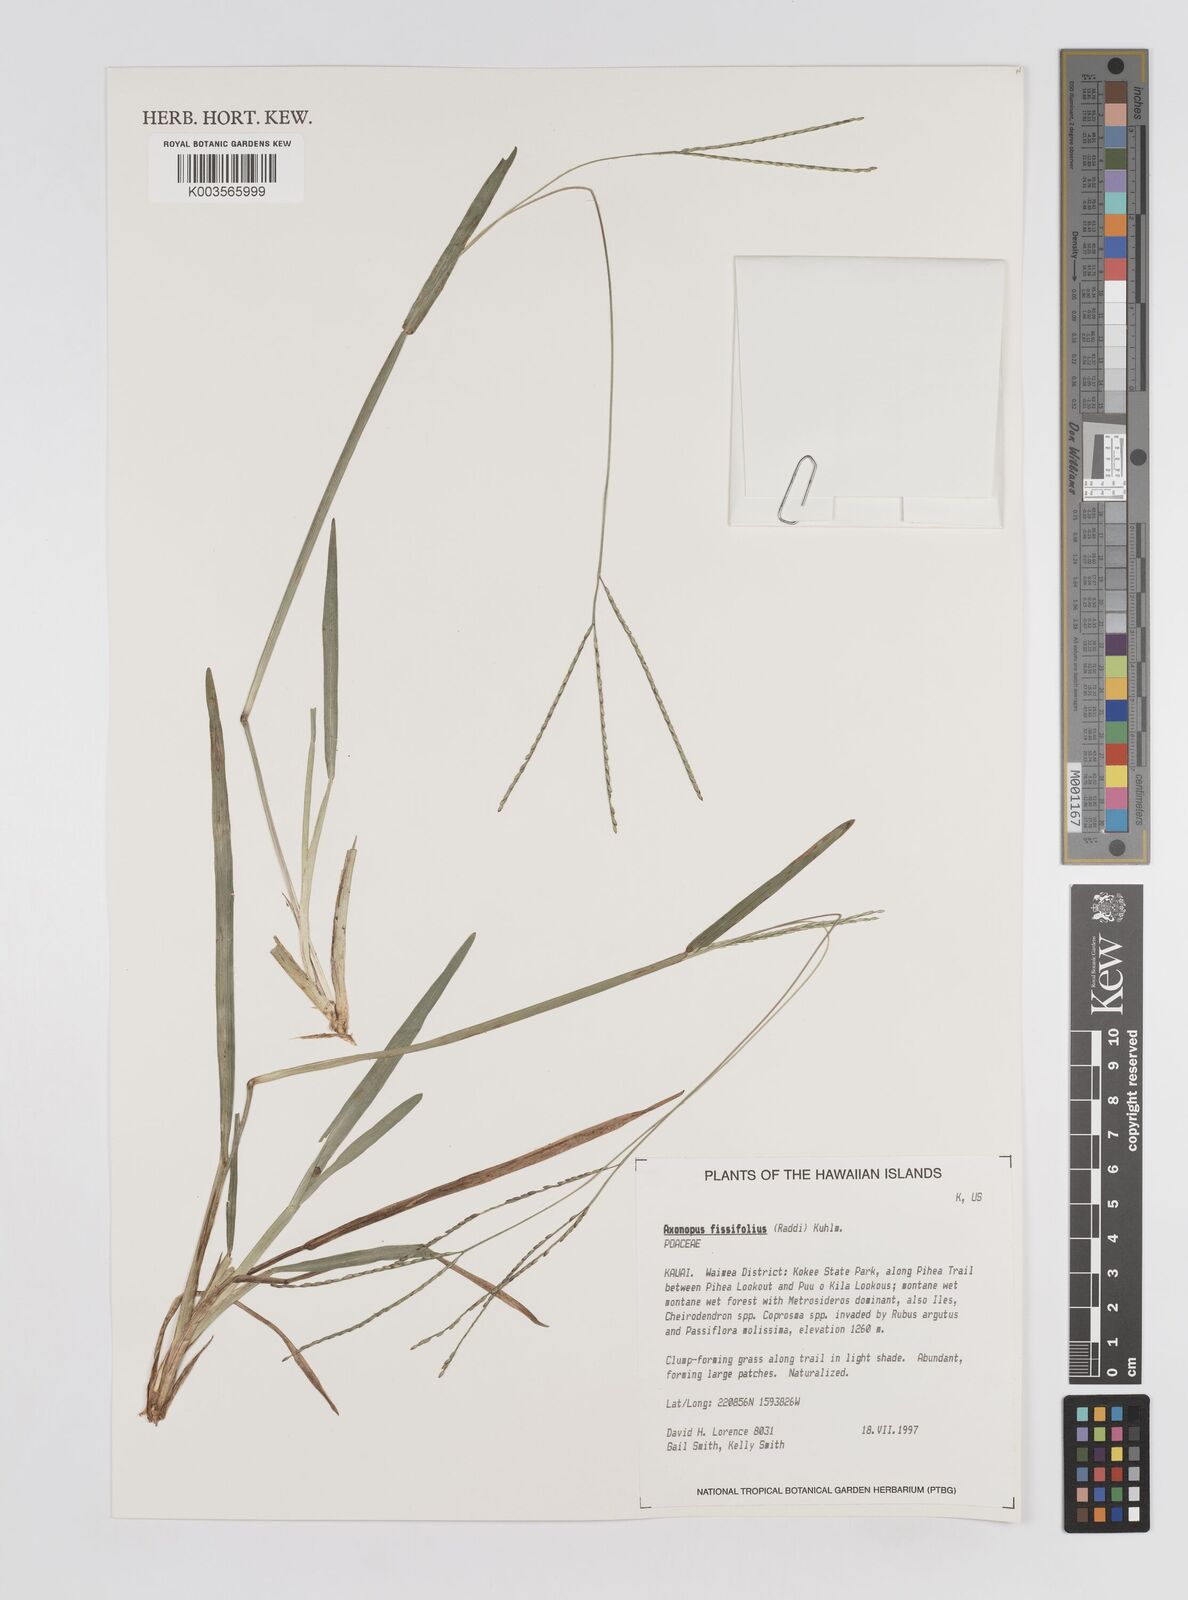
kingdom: Plantae
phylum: Tracheophyta
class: Liliopsida
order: Poales
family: Poaceae
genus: Axonopus
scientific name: Axonopus fissifolius
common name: Common carpetgrass
